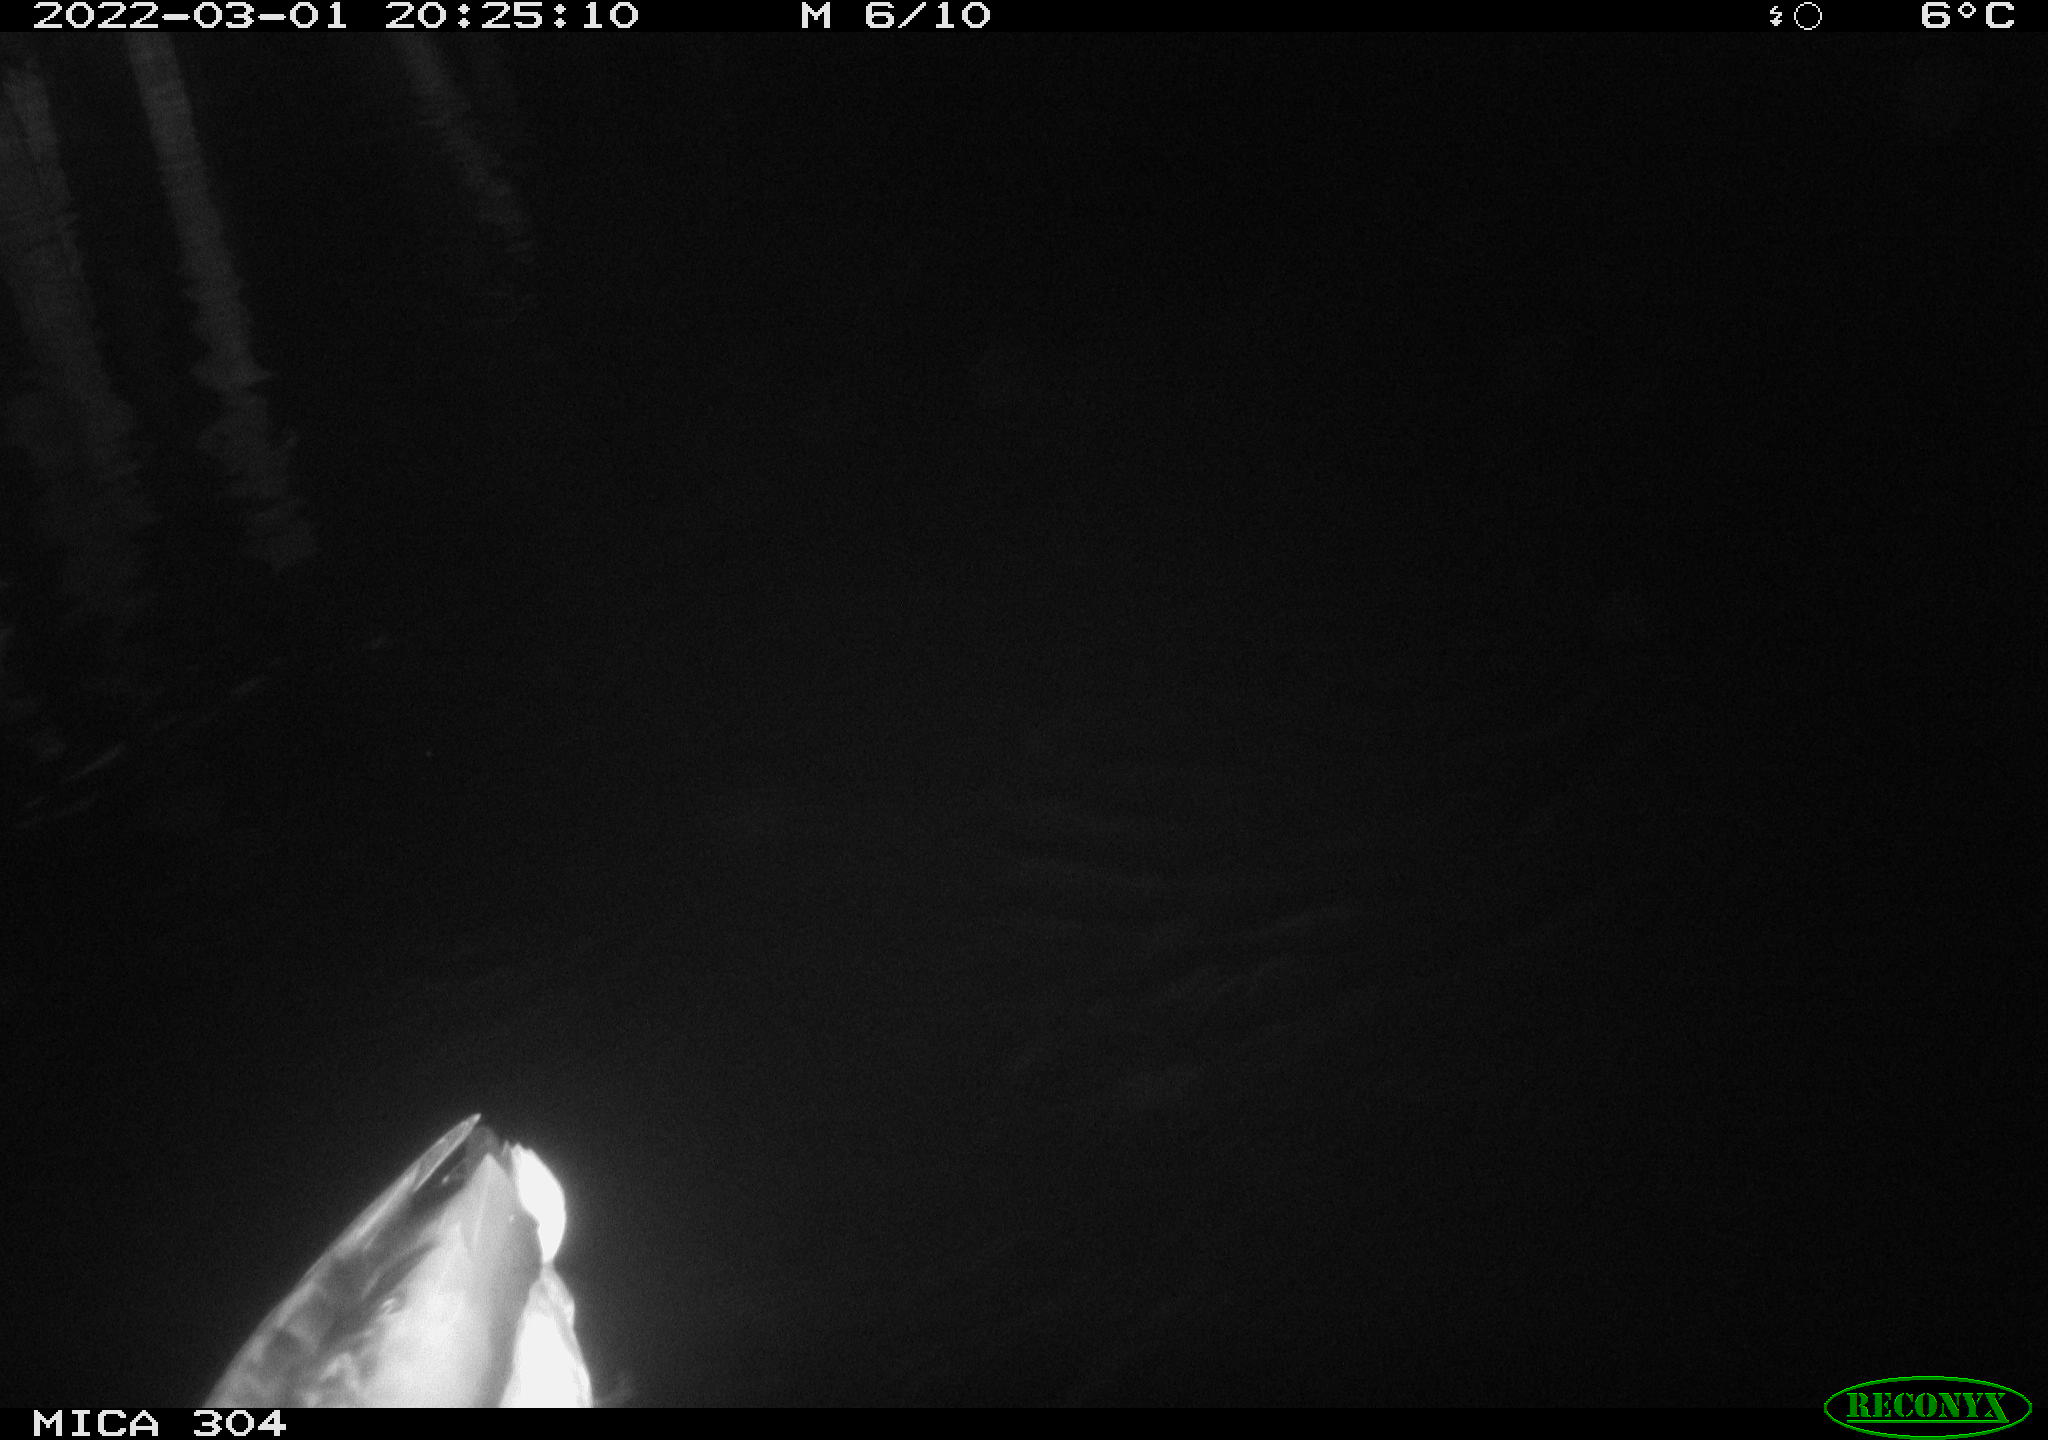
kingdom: Animalia
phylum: Chordata
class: Aves
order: Anseriformes
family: Anatidae
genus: Anas
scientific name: Anas platyrhynchos
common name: Mallard
